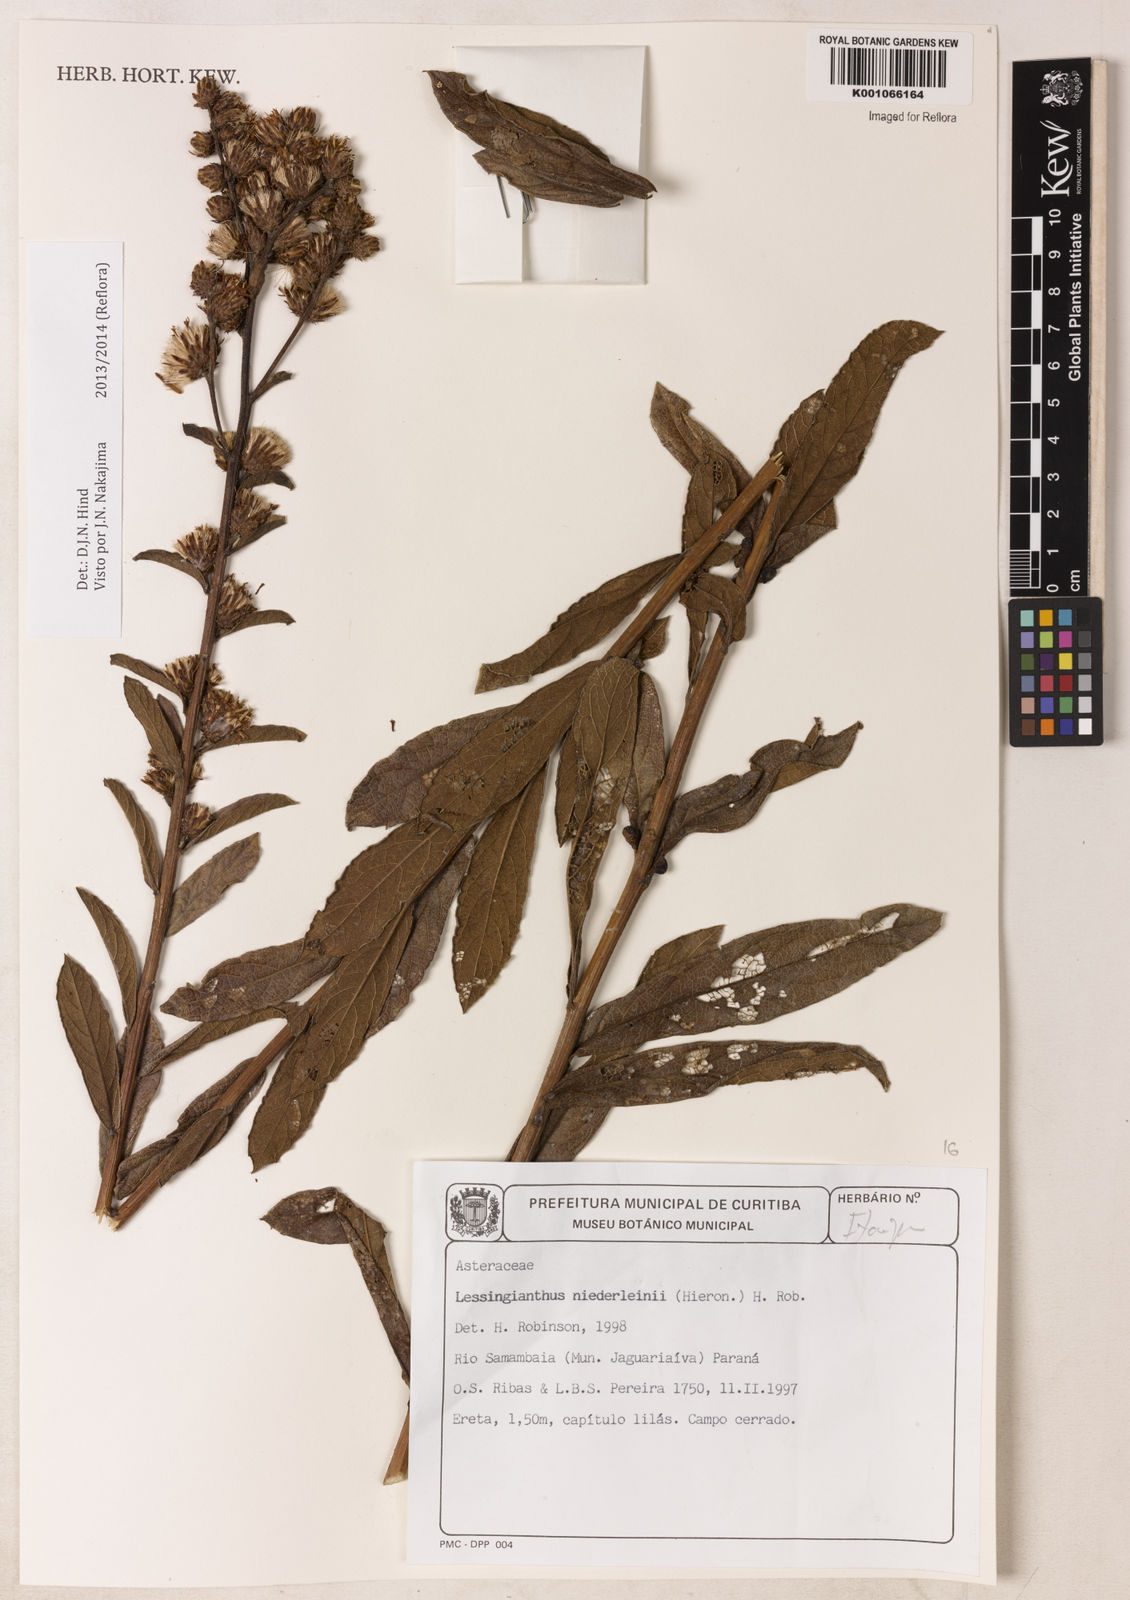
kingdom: Plantae
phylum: Tracheophyta
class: Magnoliopsida
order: Asterales
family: Asteraceae
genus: Lessingianthus
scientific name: Lessingianthus niederleinii
